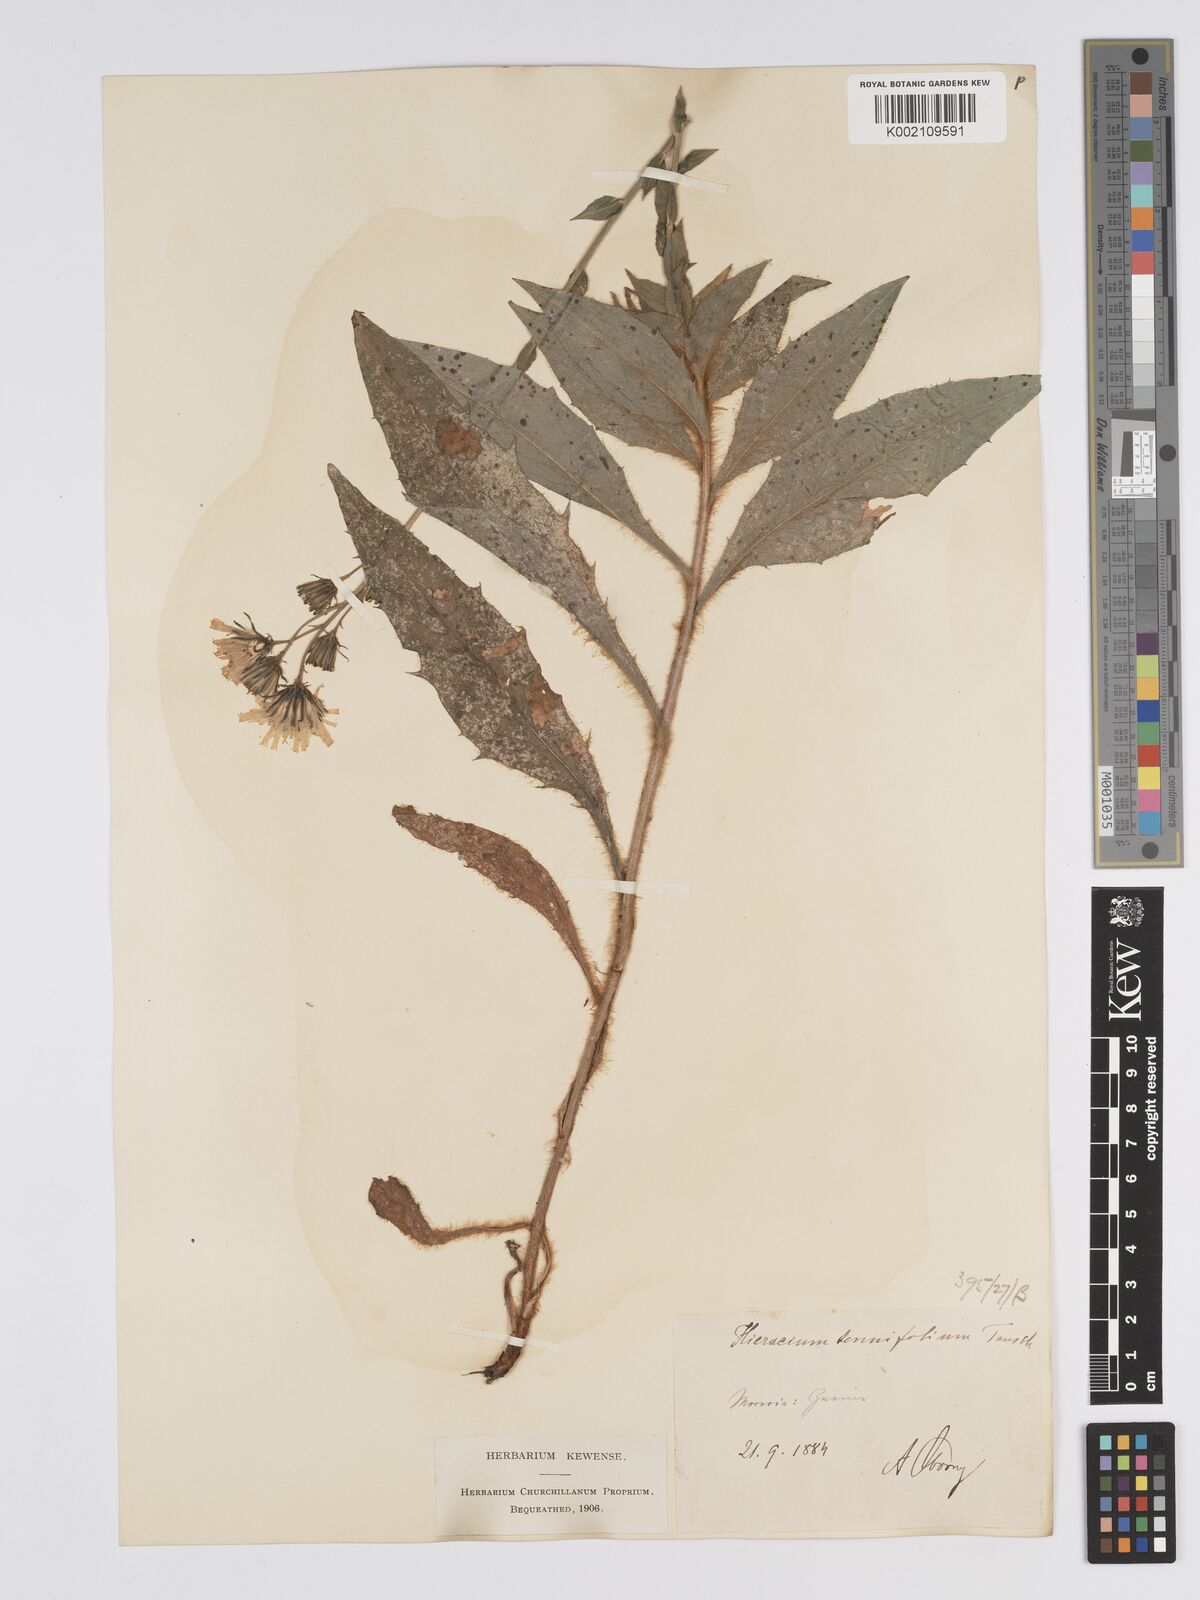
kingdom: Plantae
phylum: Tracheophyta
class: Magnoliopsida
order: Asterales
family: Asteraceae
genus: Hieracium
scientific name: Hieracium racemosum
